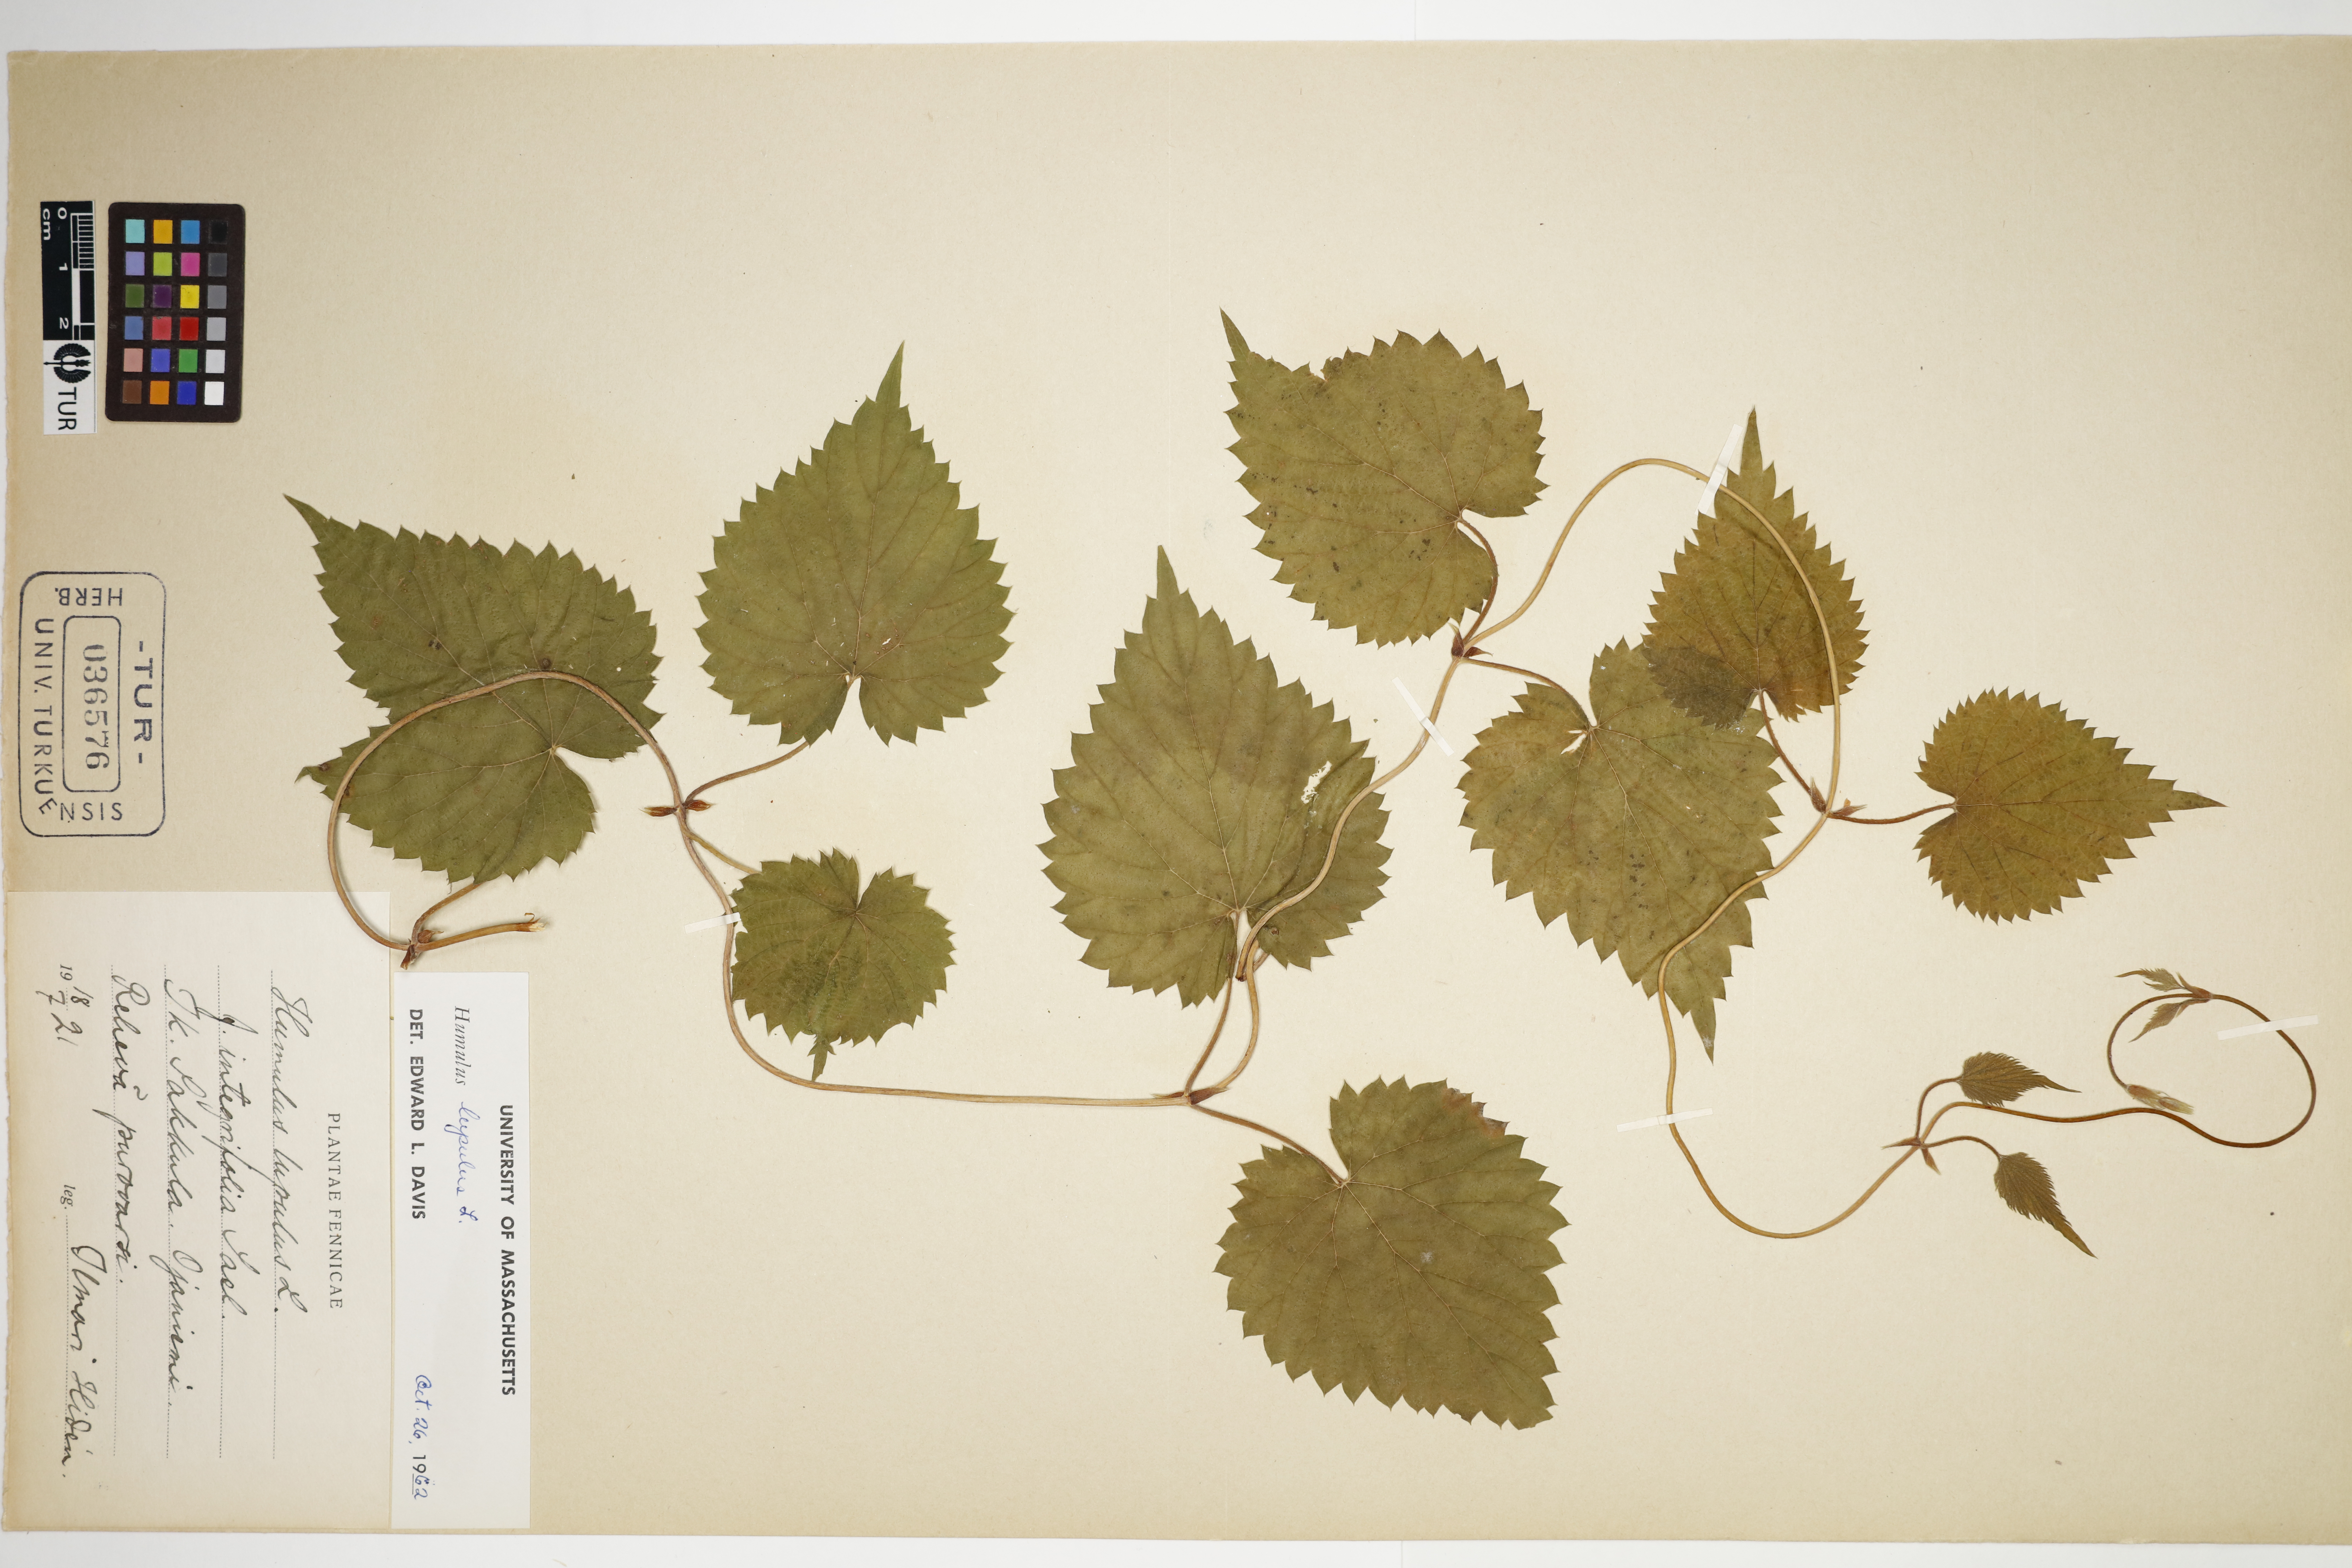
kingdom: Plantae
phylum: Tracheophyta
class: Magnoliopsida
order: Rosales
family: Cannabaceae
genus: Humulus
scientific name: Humulus lupulus
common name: Hop
